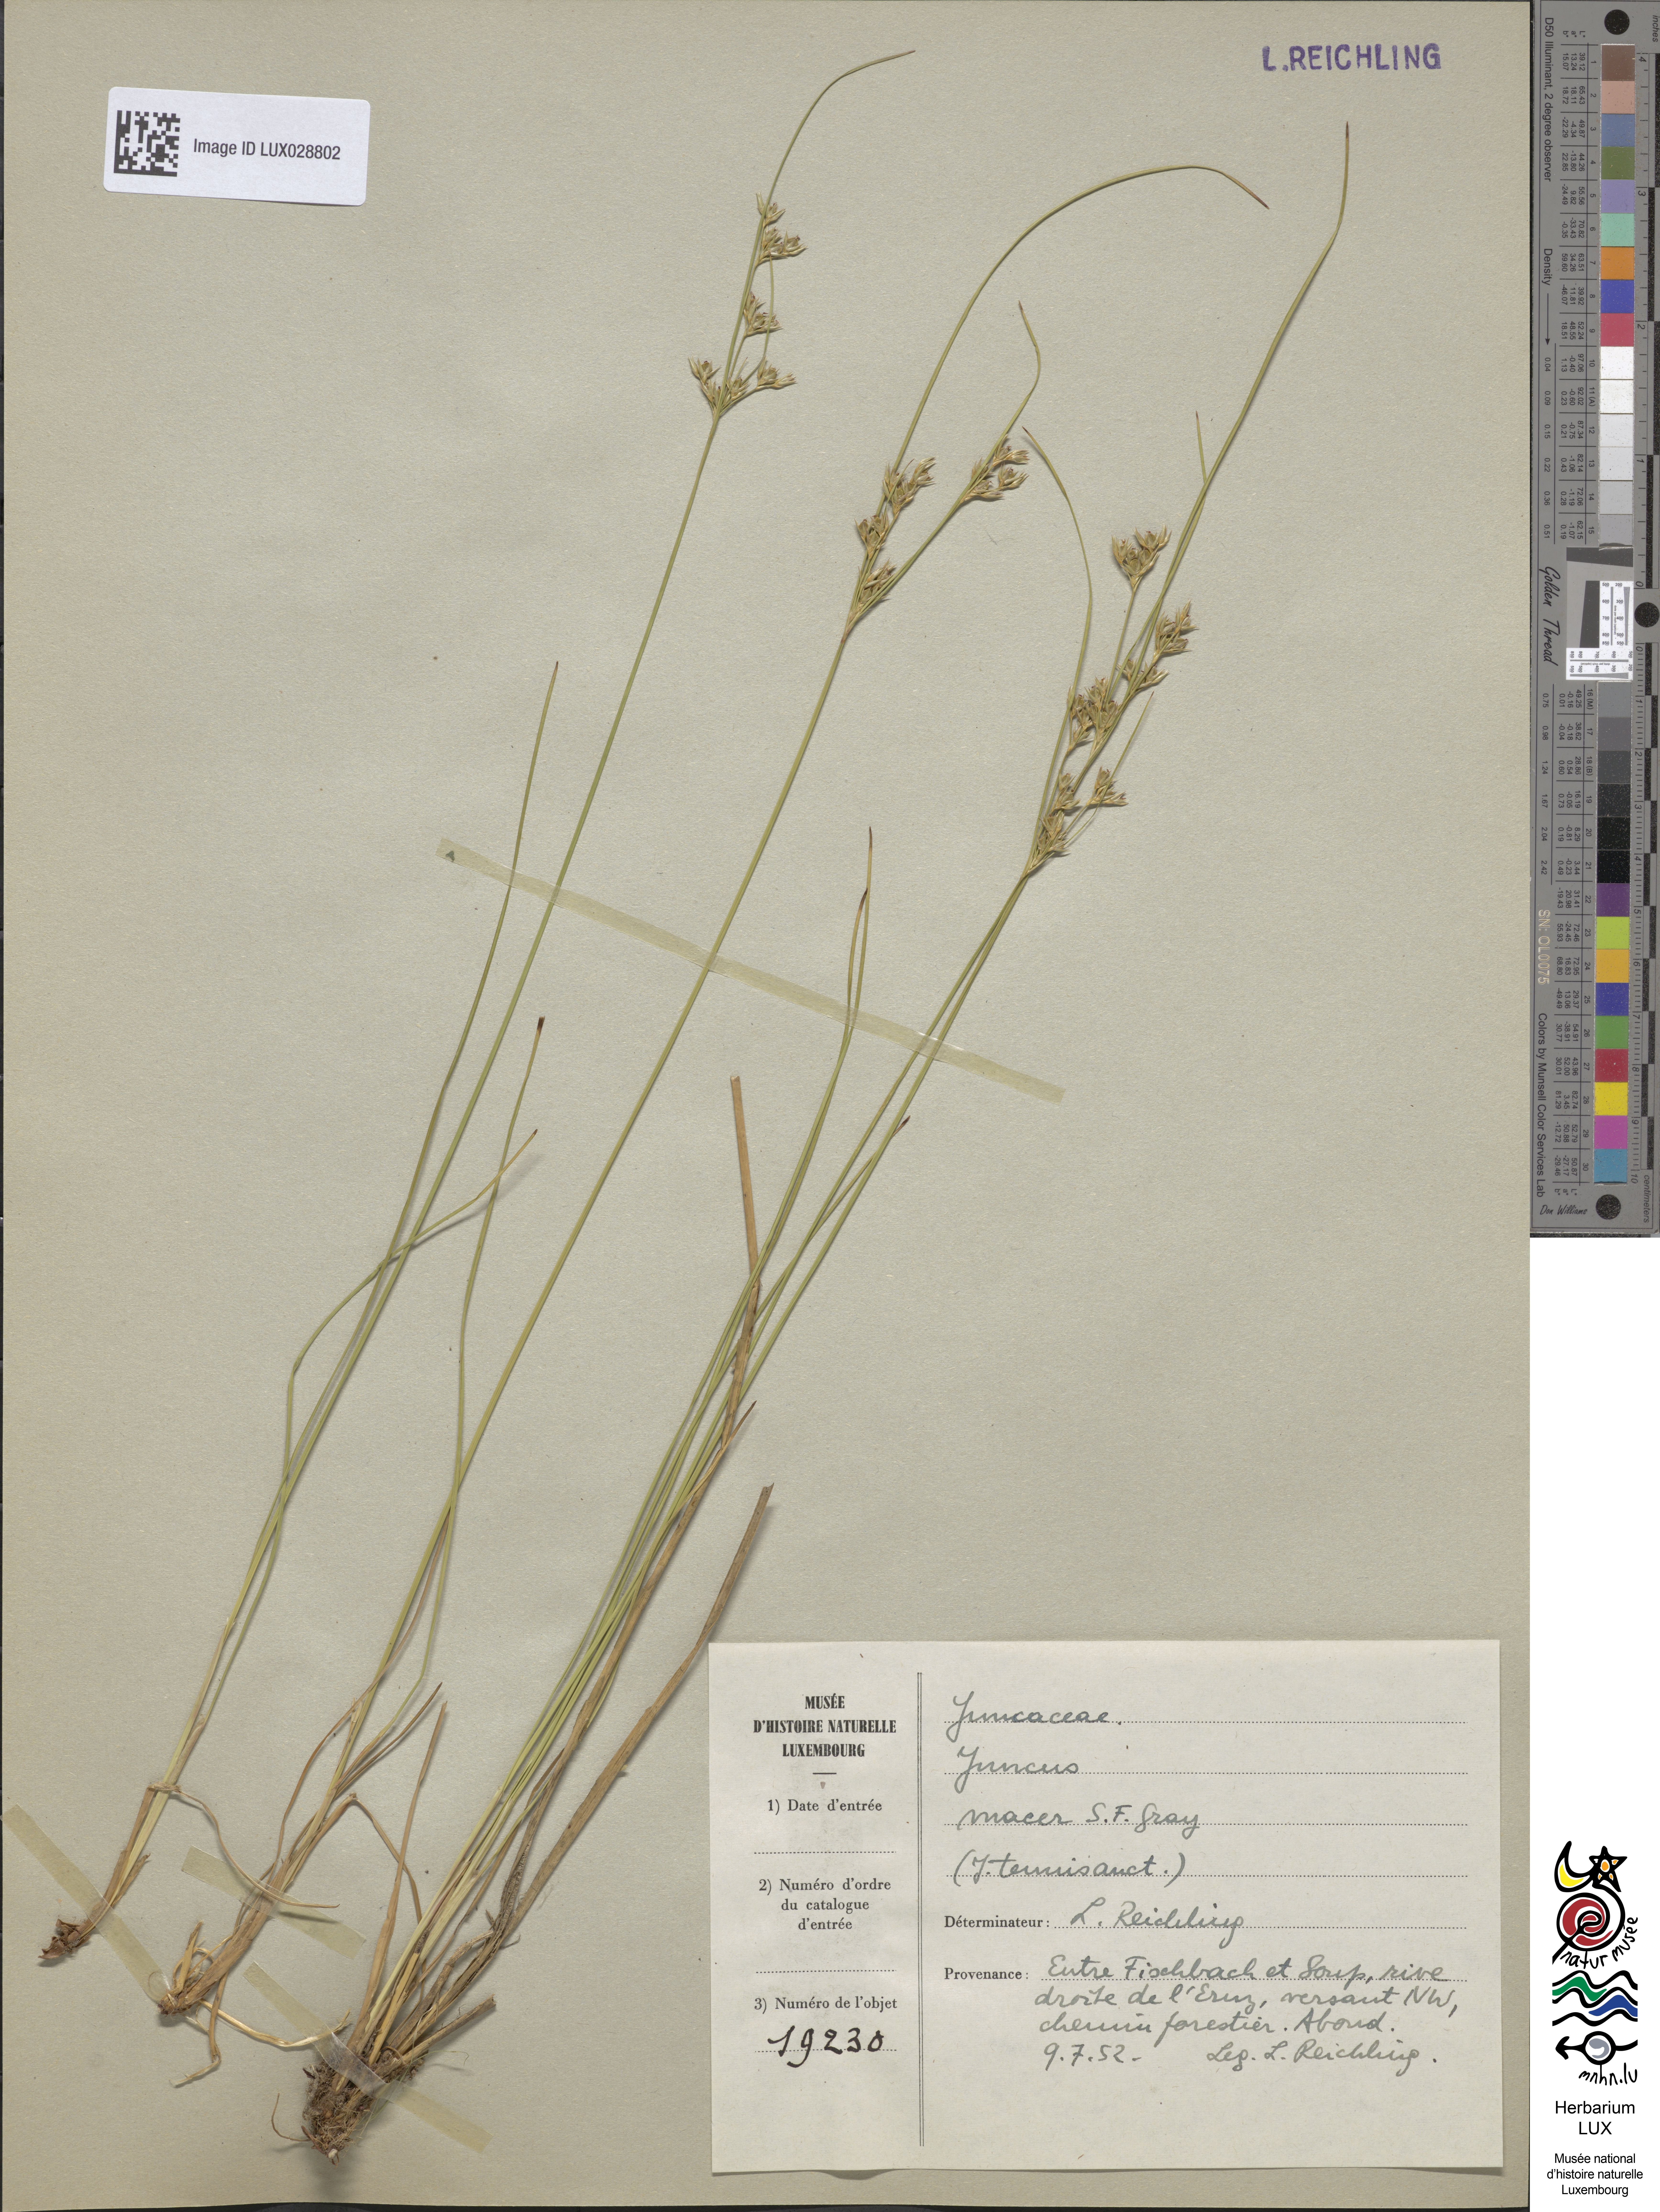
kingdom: Plantae
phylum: Tracheophyta
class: Liliopsida
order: Poales
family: Juncaceae
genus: Juncus
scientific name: Juncus tenuis
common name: Slender rush
